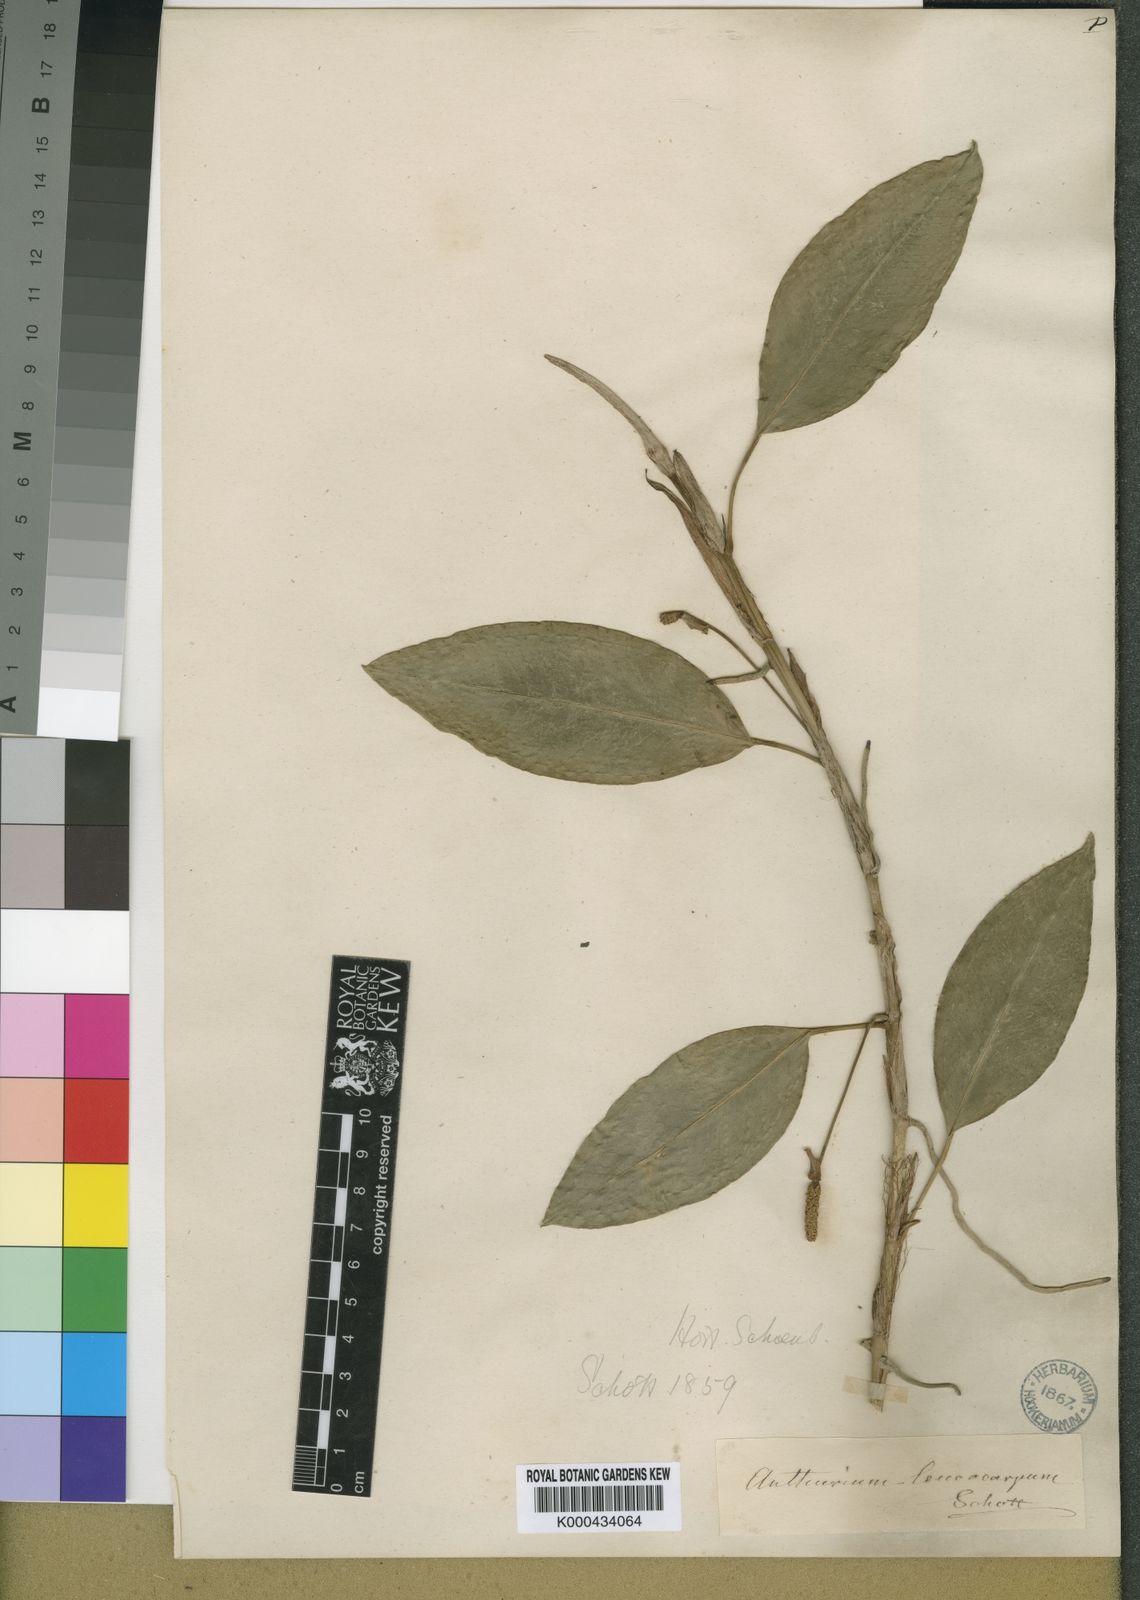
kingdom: Plantae
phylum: Tracheophyta
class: Liliopsida
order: Alismatales
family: Araceae
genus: Anthurium
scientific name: Anthurium scandens
